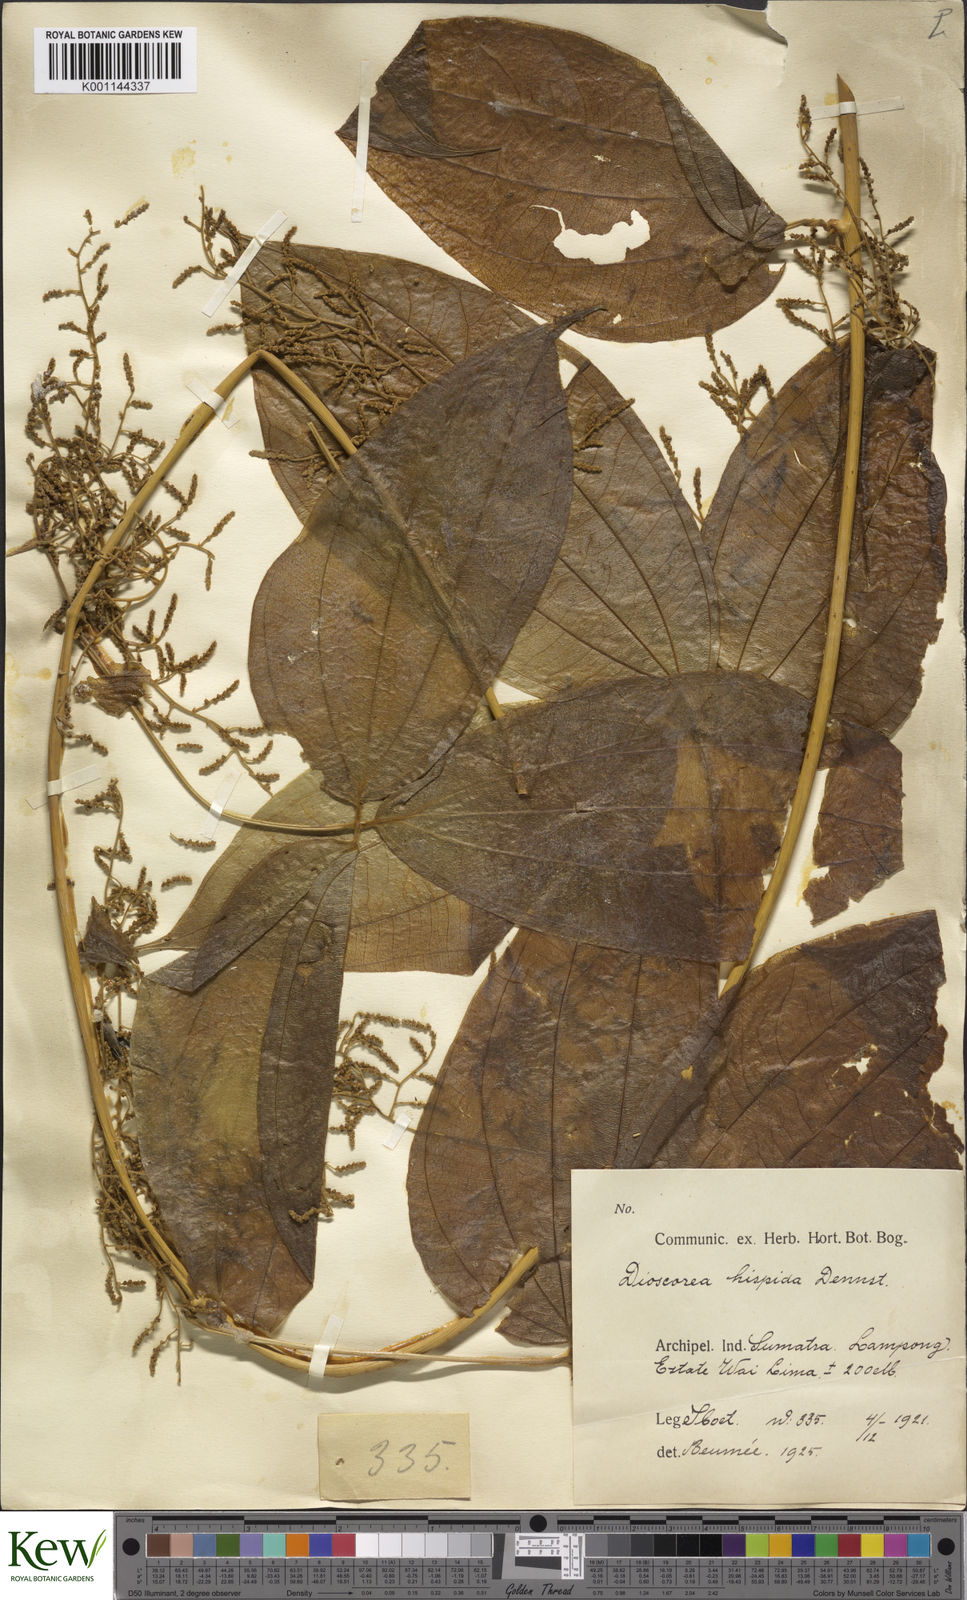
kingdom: Plantae
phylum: Tracheophyta
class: Liliopsida
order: Dioscoreales
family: Dioscoreaceae
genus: Dioscorea
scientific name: Dioscorea hispida
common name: Asiatic bitter yam
